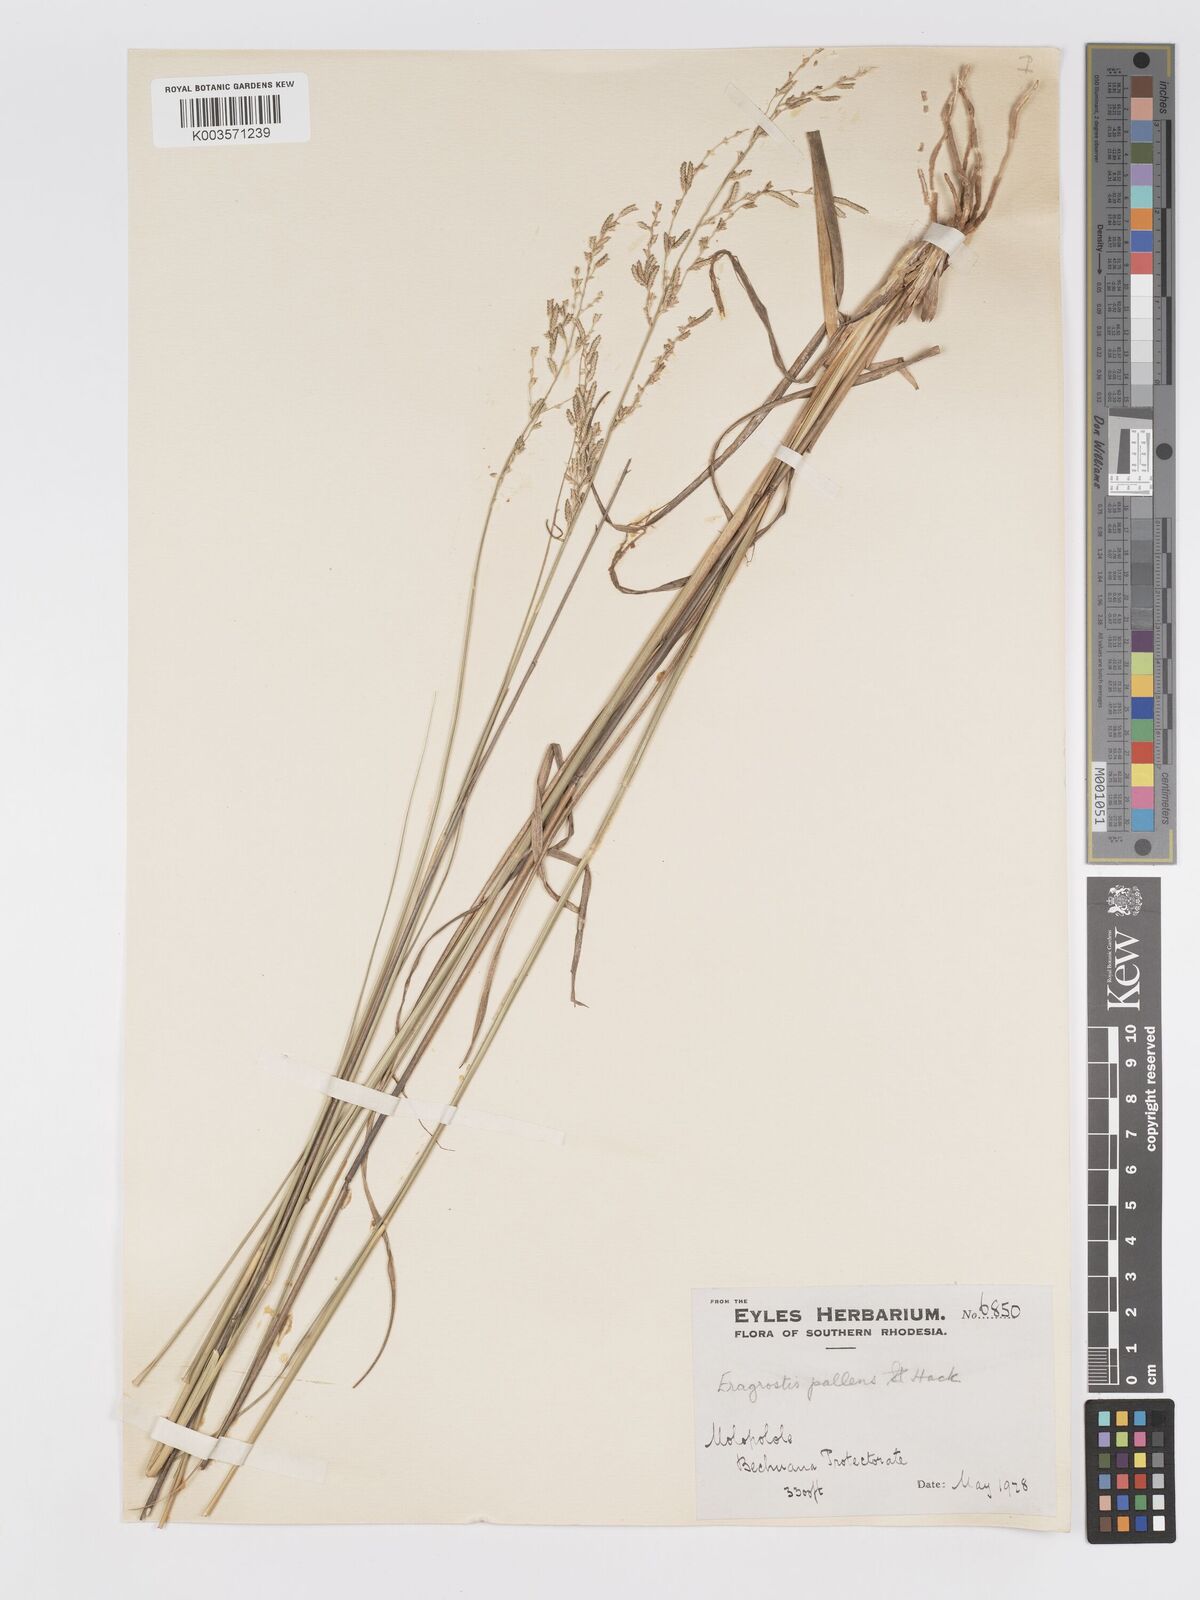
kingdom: Plantae
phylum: Tracheophyta
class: Liliopsida
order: Poales
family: Poaceae
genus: Eragrostis
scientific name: Eragrostis pallens
